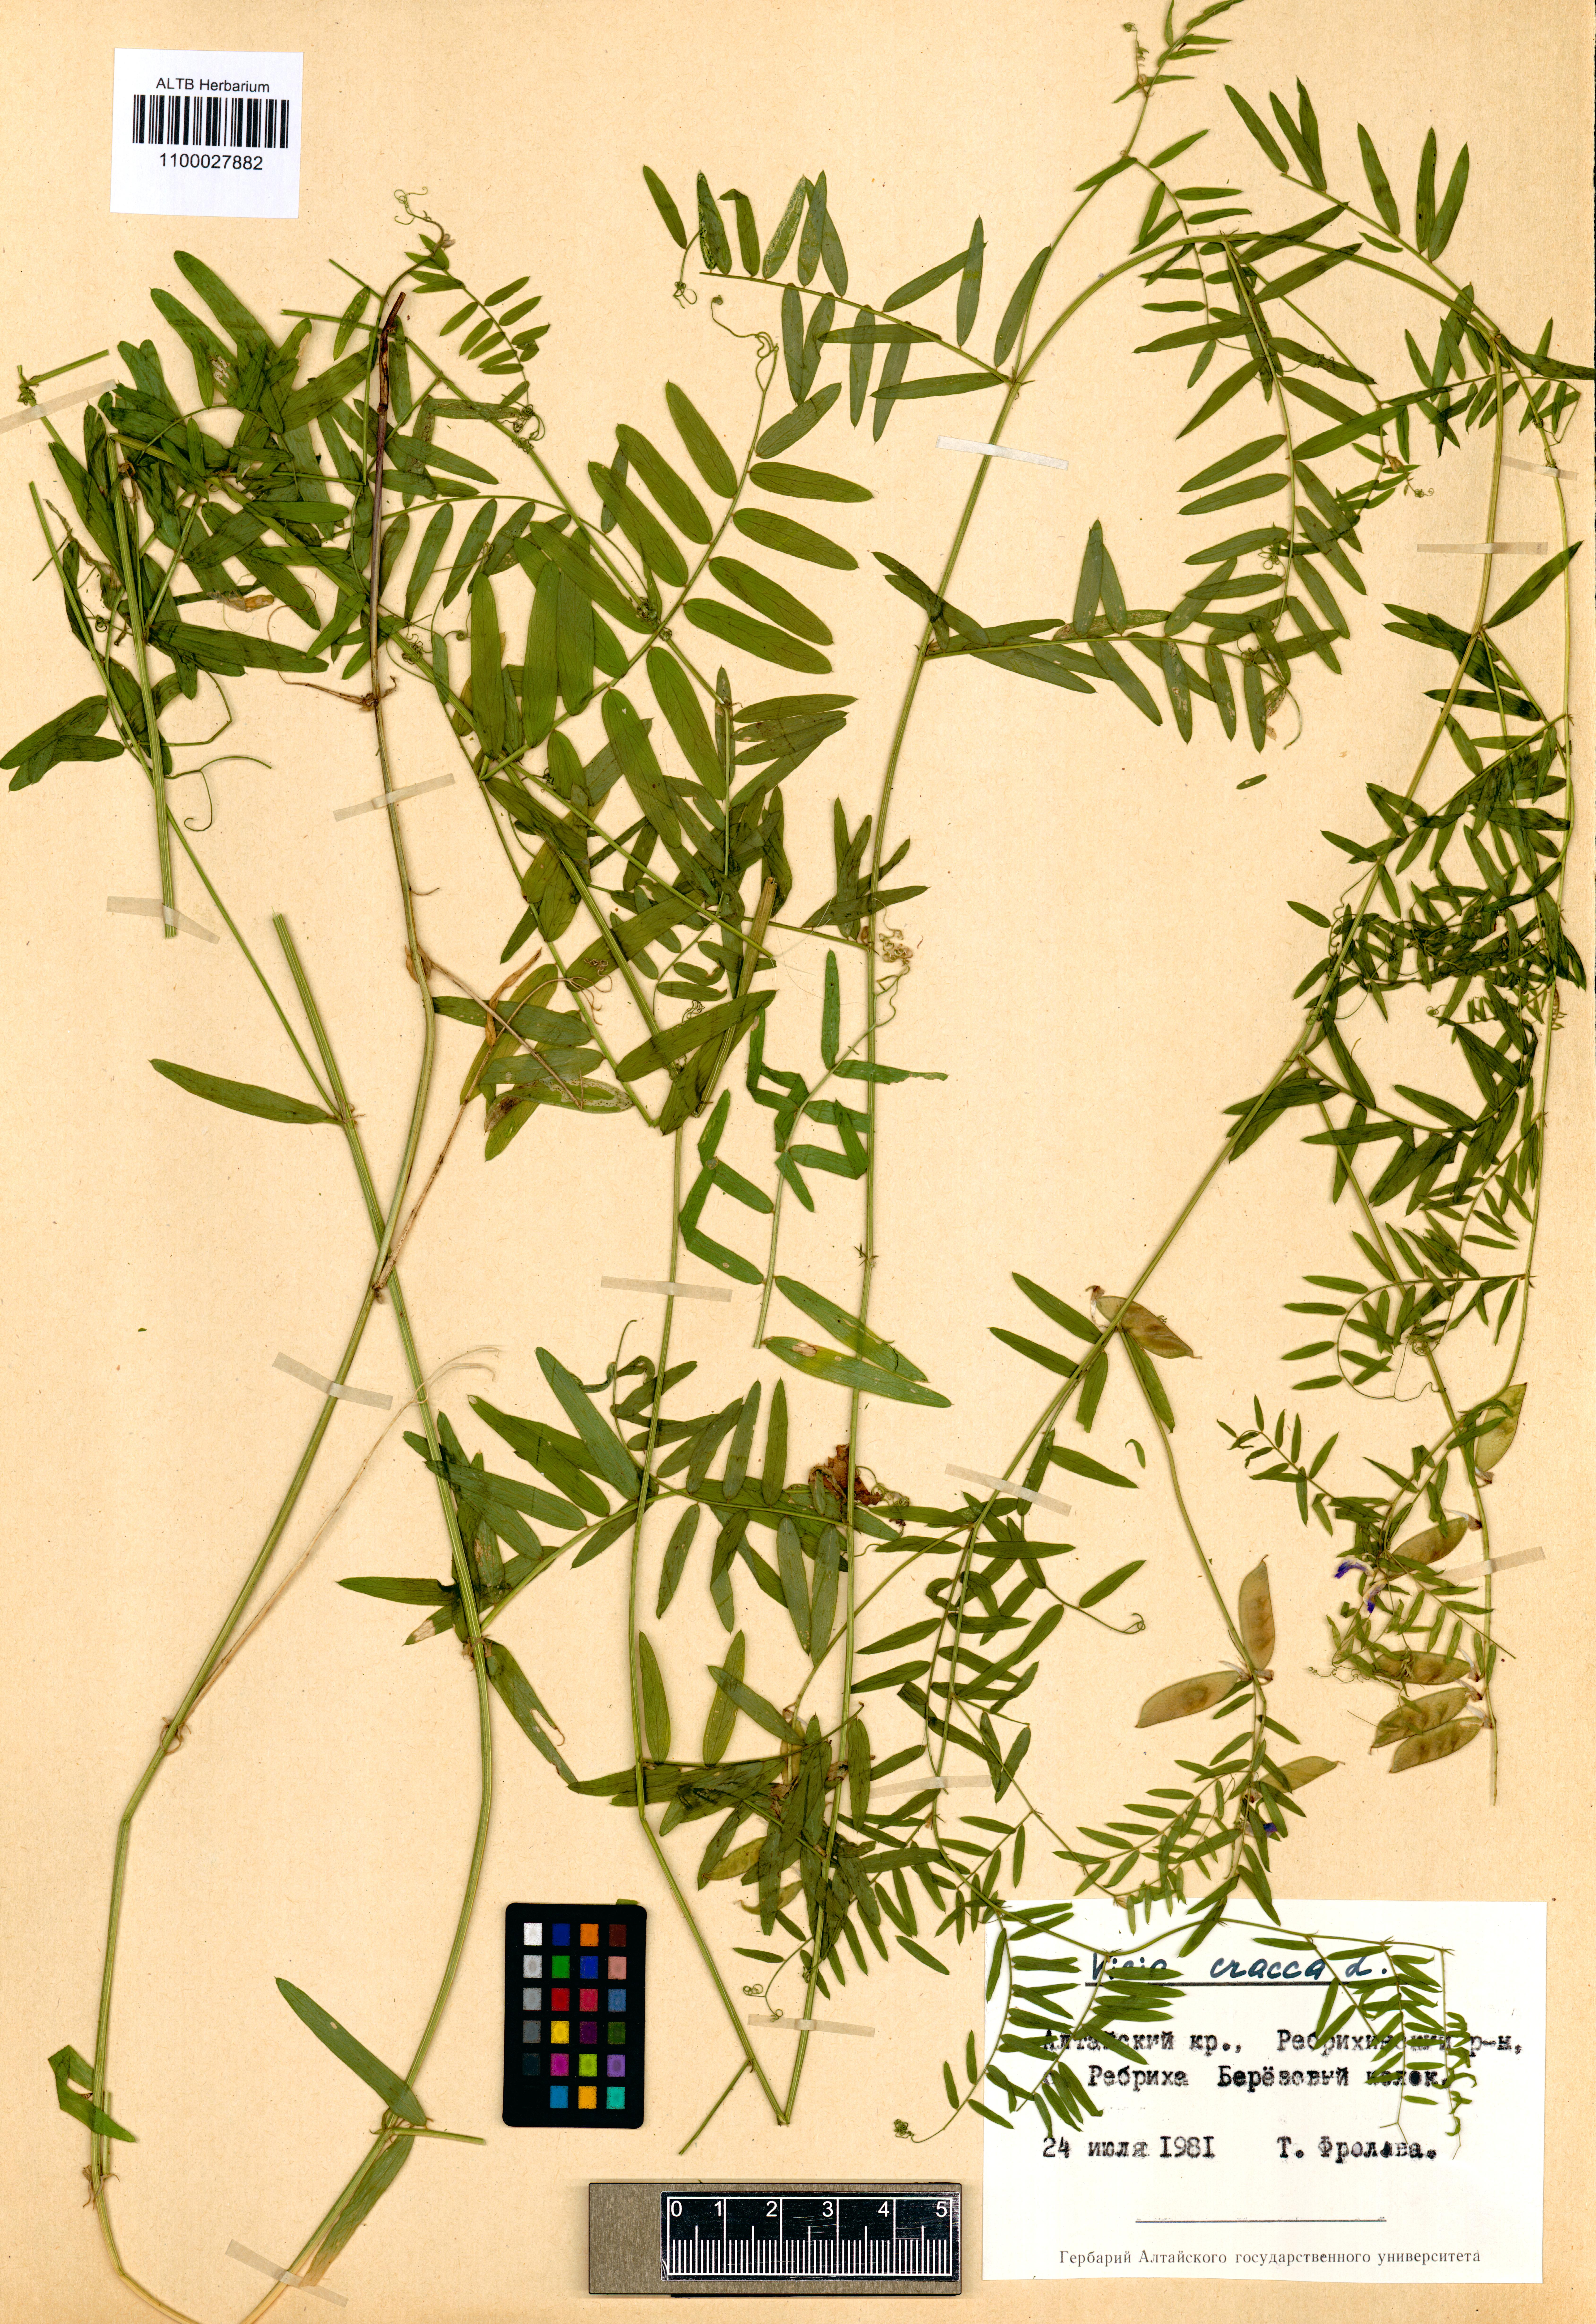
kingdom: Plantae
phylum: Tracheophyta
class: Magnoliopsida
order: Fabales
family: Fabaceae
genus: Vicia
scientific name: Vicia cracca
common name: Bird vetch
